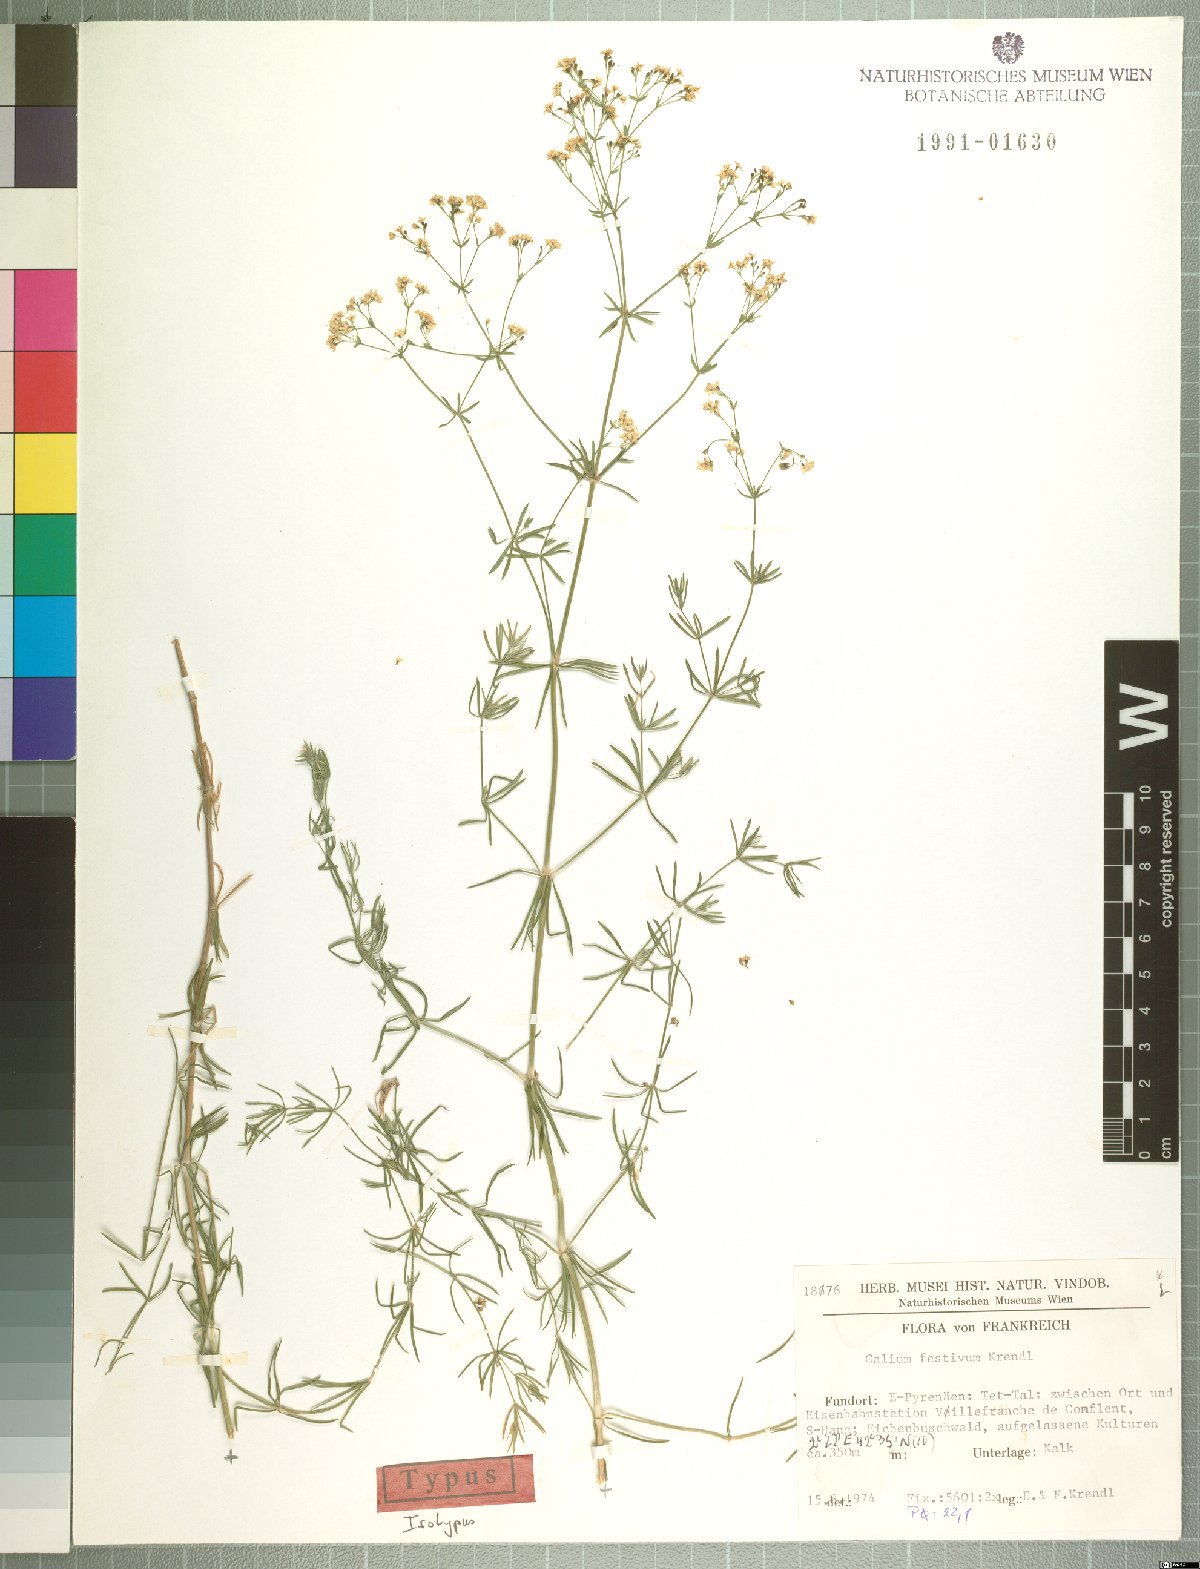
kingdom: Plantae
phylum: Tracheophyta
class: Magnoliopsida
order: Gentianales
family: Rubiaceae
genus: Galium
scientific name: Galium festivum
